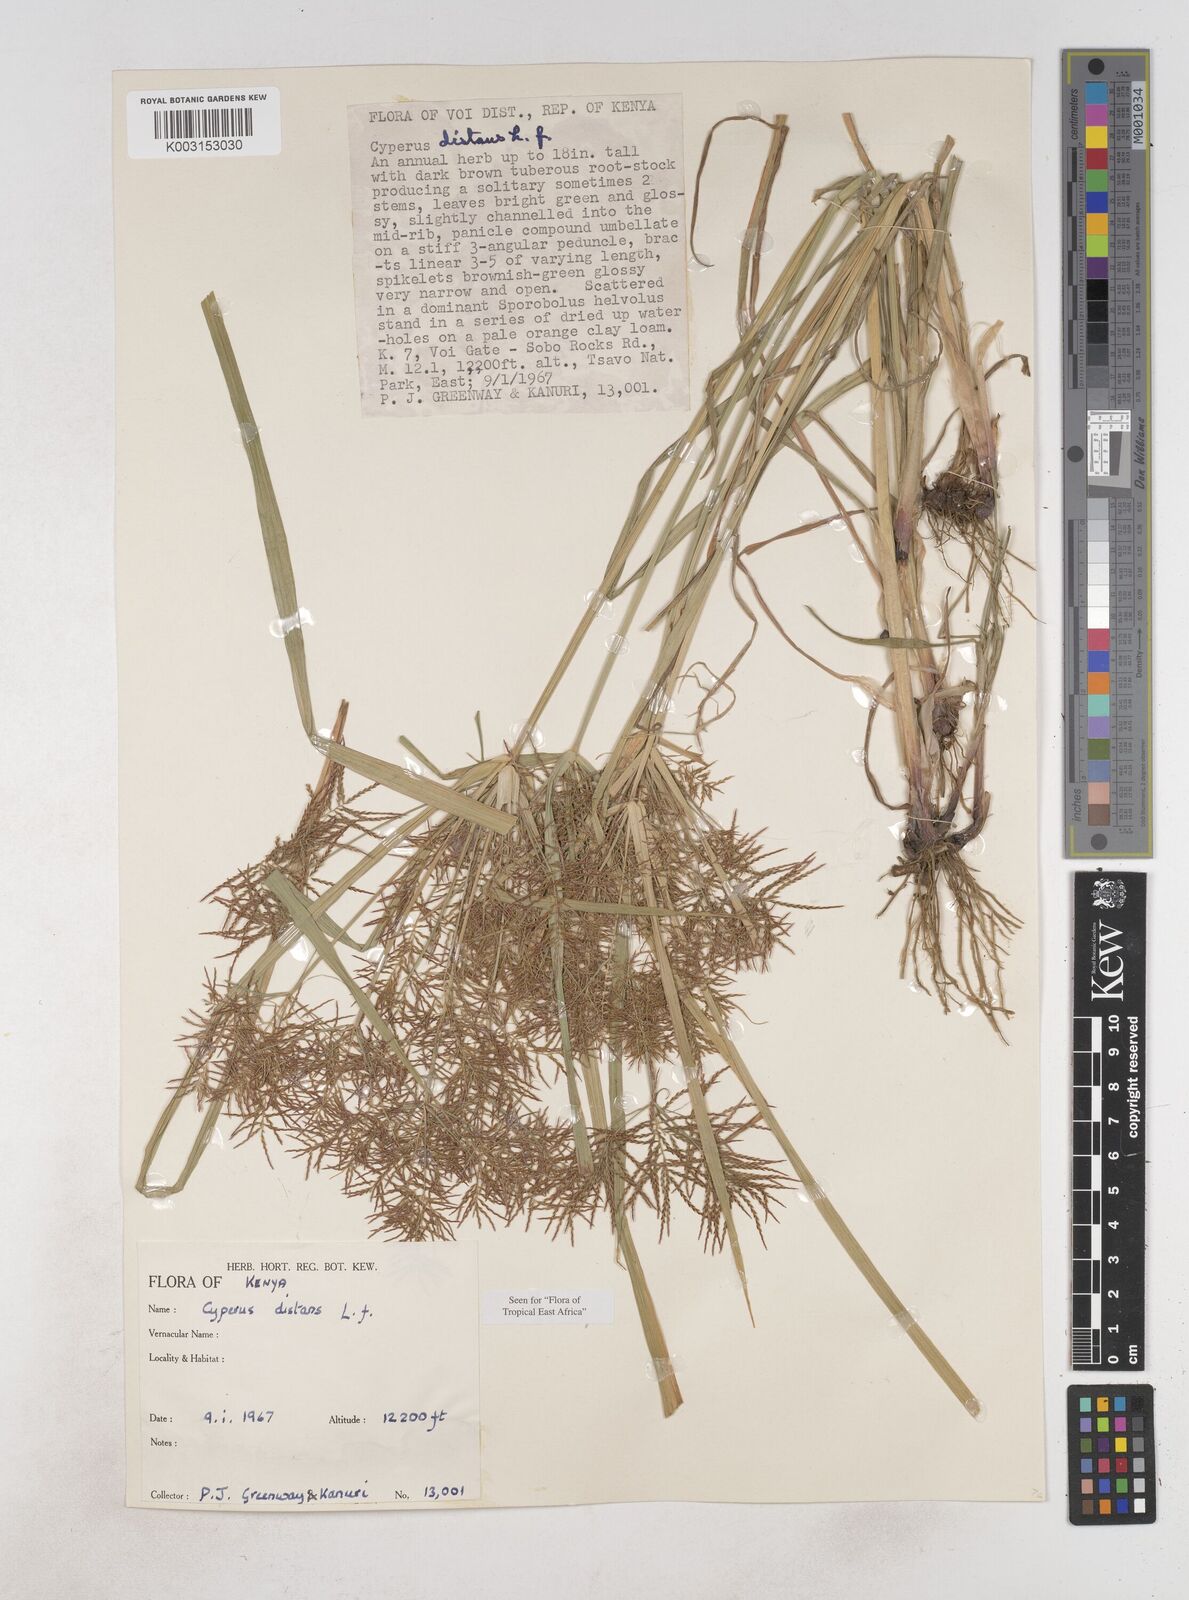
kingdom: Plantae
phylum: Tracheophyta
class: Liliopsida
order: Poales
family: Cyperaceae
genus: Cyperus
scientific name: Cyperus distans
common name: Slender cyperus
